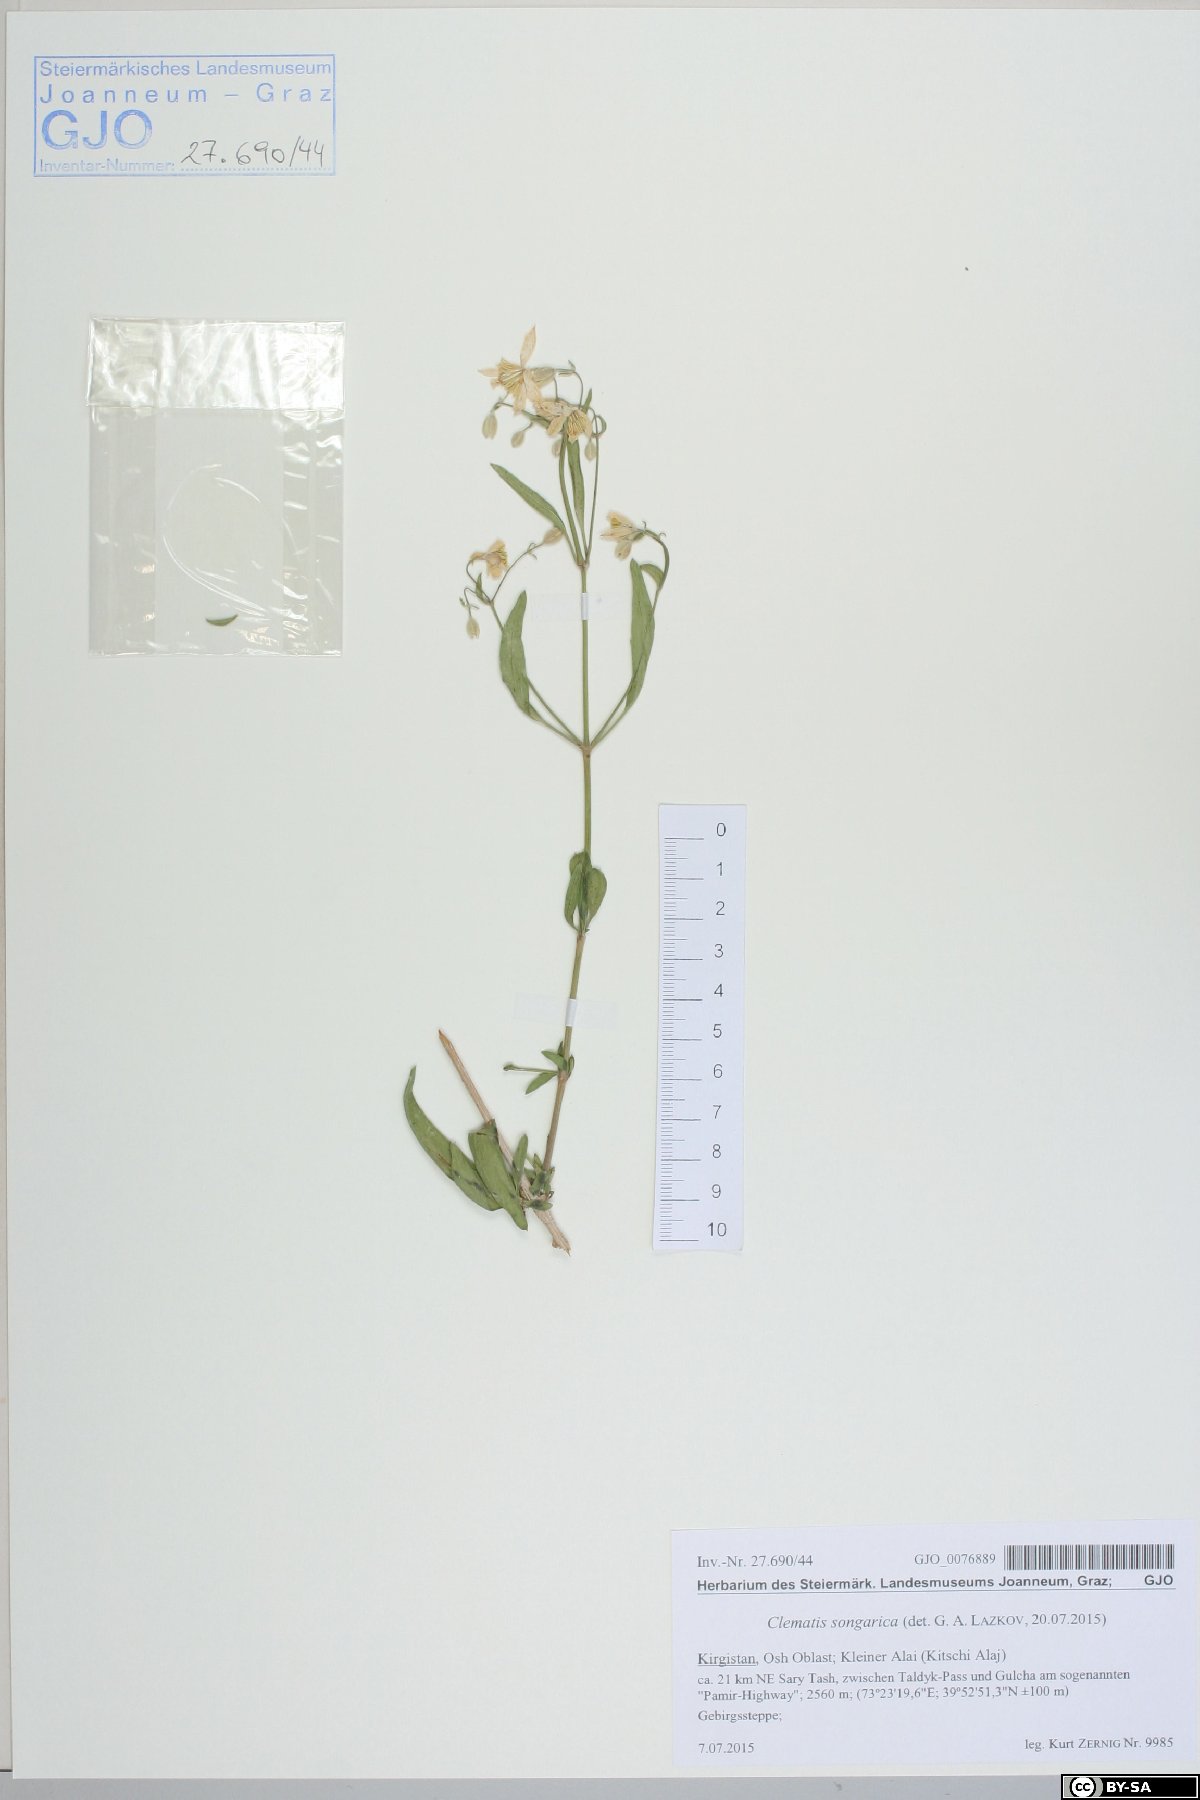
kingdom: Plantae
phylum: Tracheophyta
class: Magnoliopsida
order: Ranunculales
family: Ranunculaceae
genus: Clematis
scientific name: Clematis songorica
